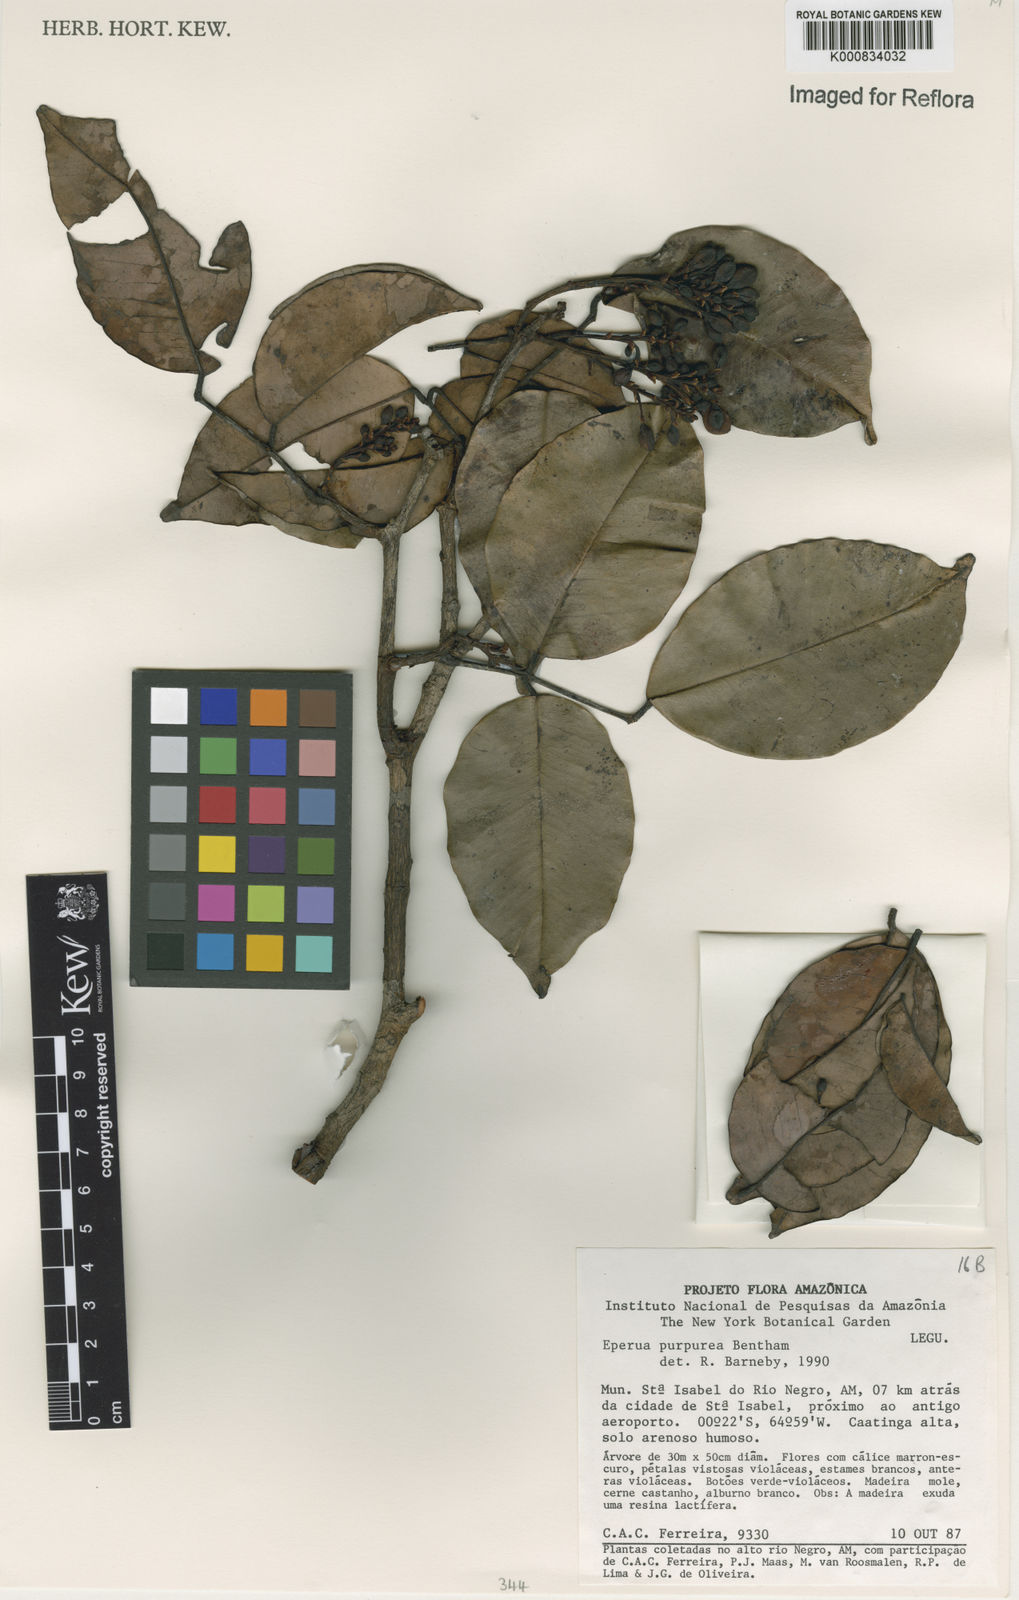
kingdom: Plantae
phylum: Tracheophyta
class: Magnoliopsida
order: Fabales
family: Fabaceae
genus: Eperua
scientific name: Eperua purpurea
